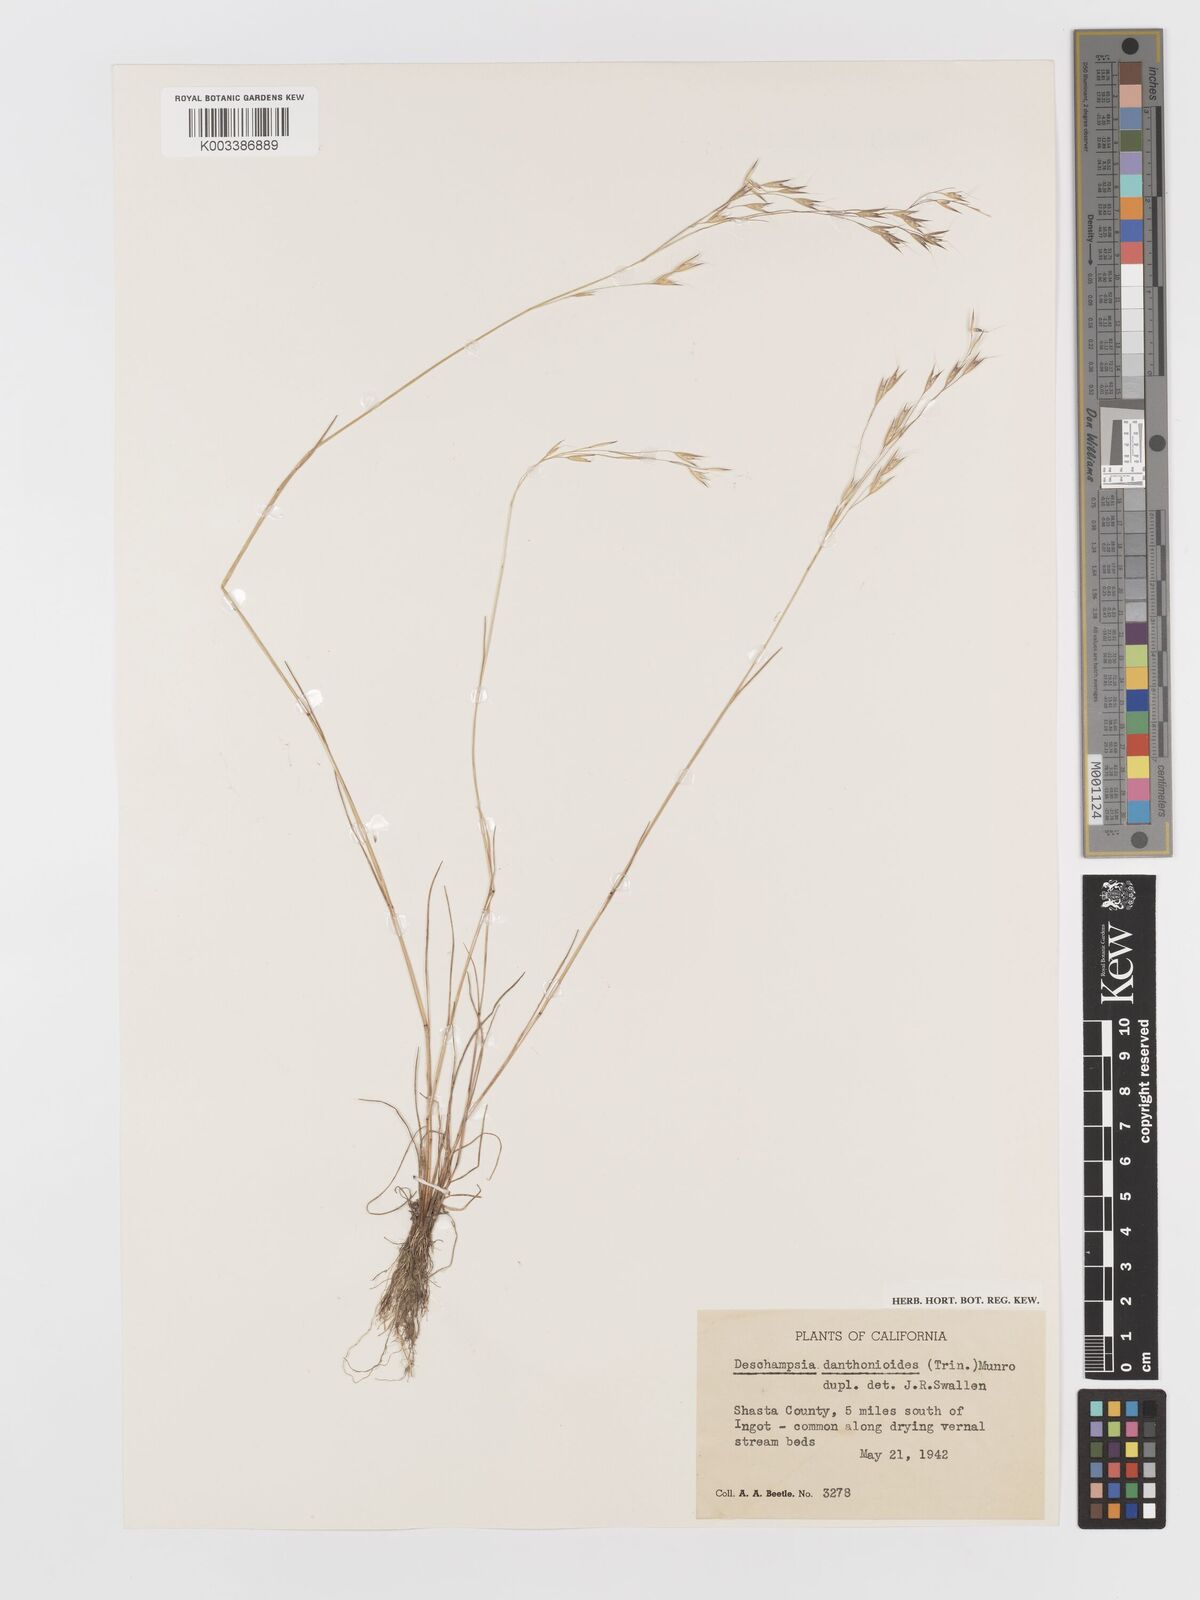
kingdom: Plantae
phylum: Tracheophyta
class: Liliopsida
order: Poales
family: Poaceae
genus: Deschampsia
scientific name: Deschampsia danthonioides
